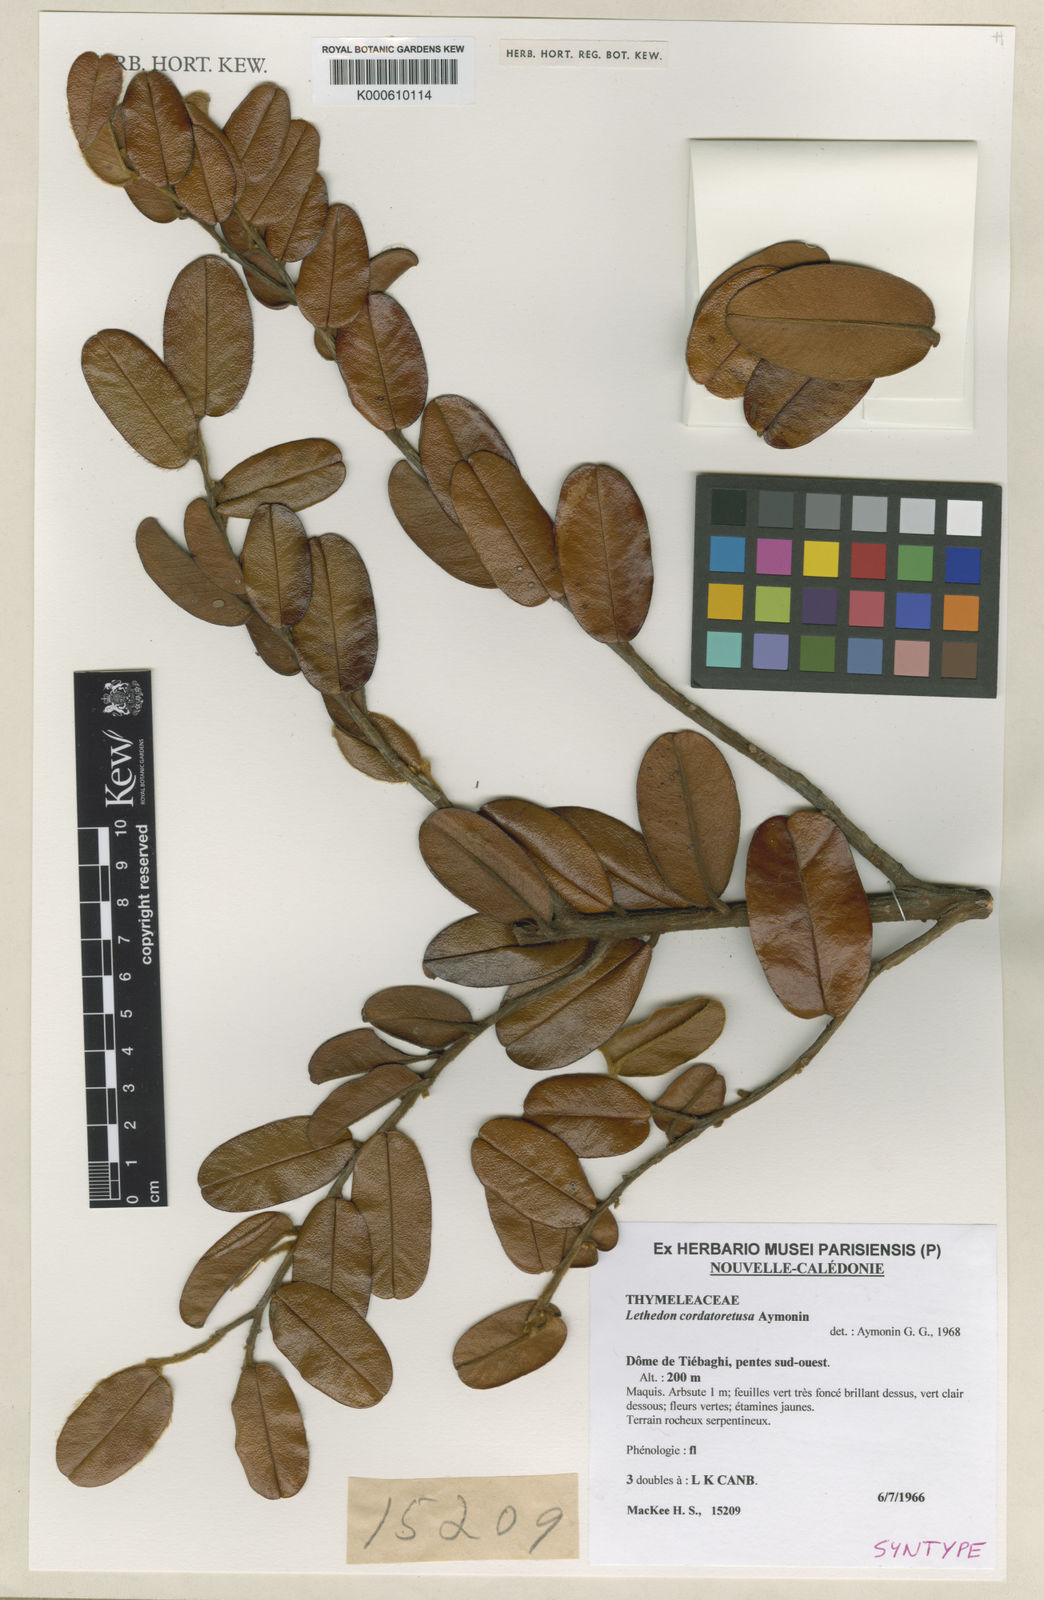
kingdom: Plantae
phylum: Tracheophyta
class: Magnoliopsida
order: Malvales
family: Thymelaeaceae
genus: Lethedon
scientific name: Lethedon cordatoretusa
